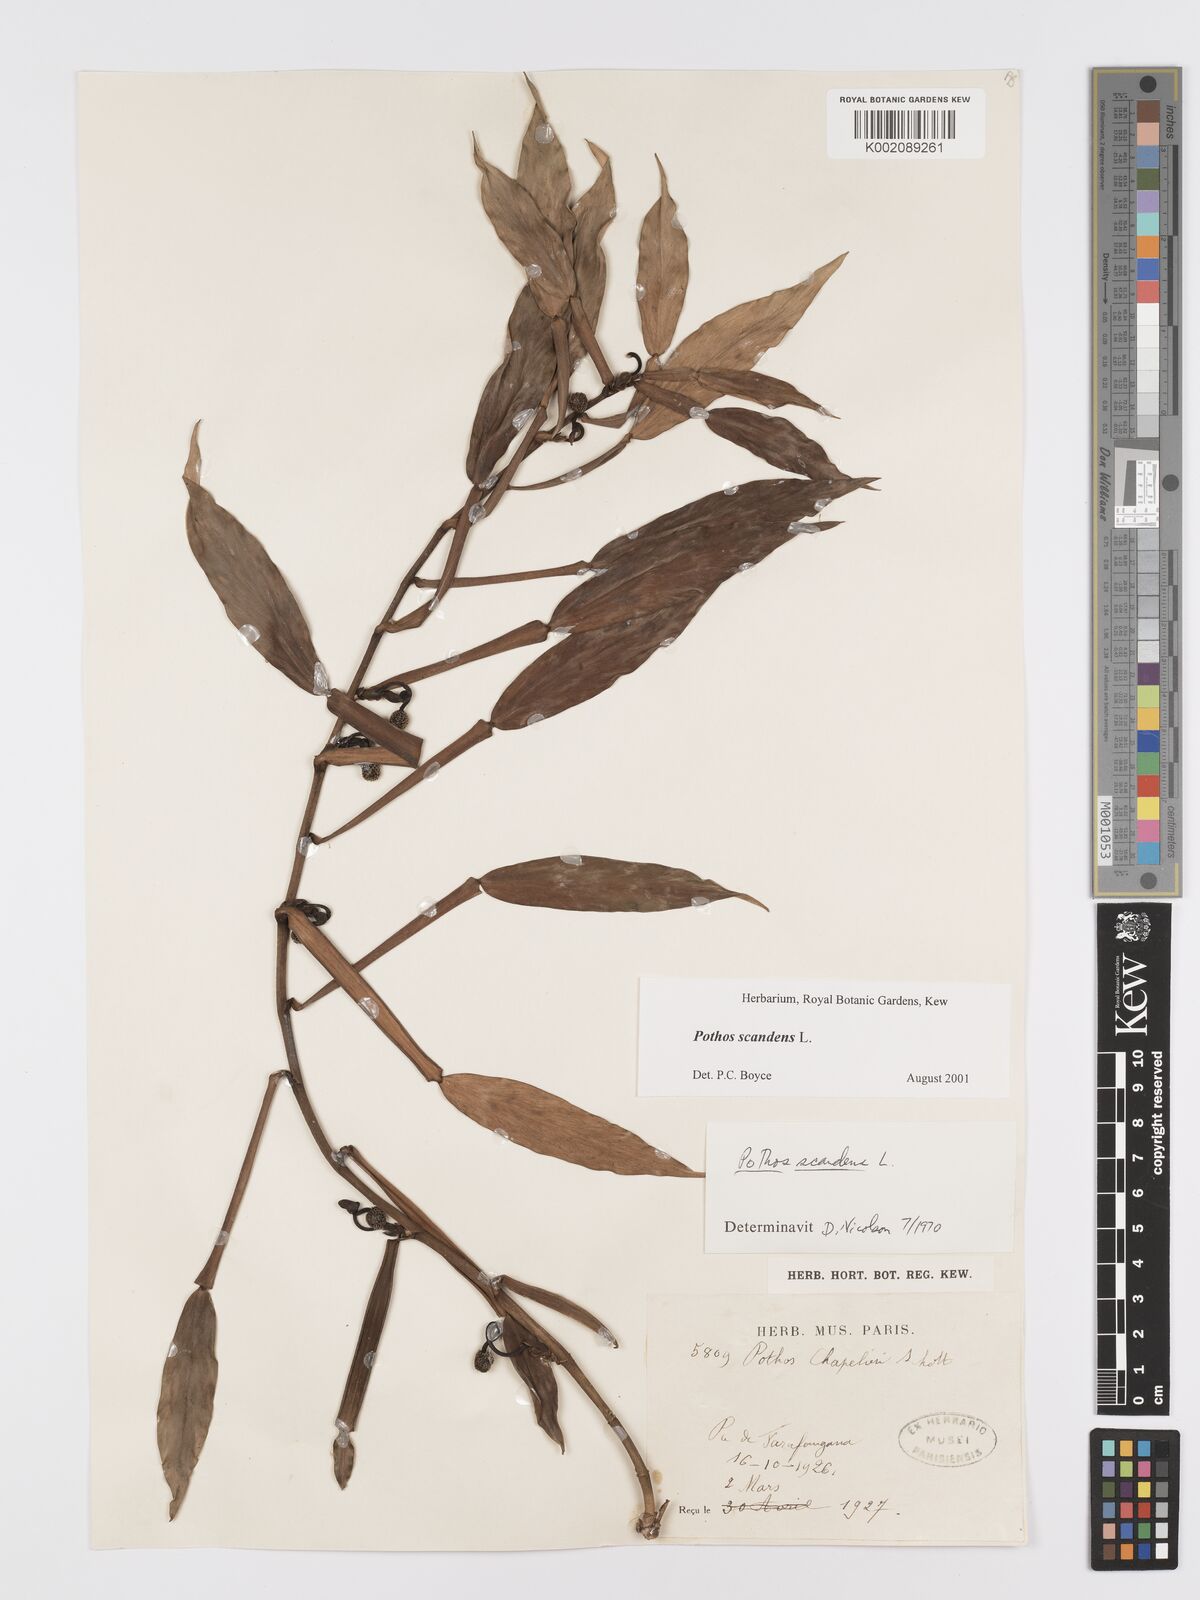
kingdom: Plantae
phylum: Tracheophyta
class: Liliopsida
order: Alismatales
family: Araceae
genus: Pothos
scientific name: Pothos scandens
